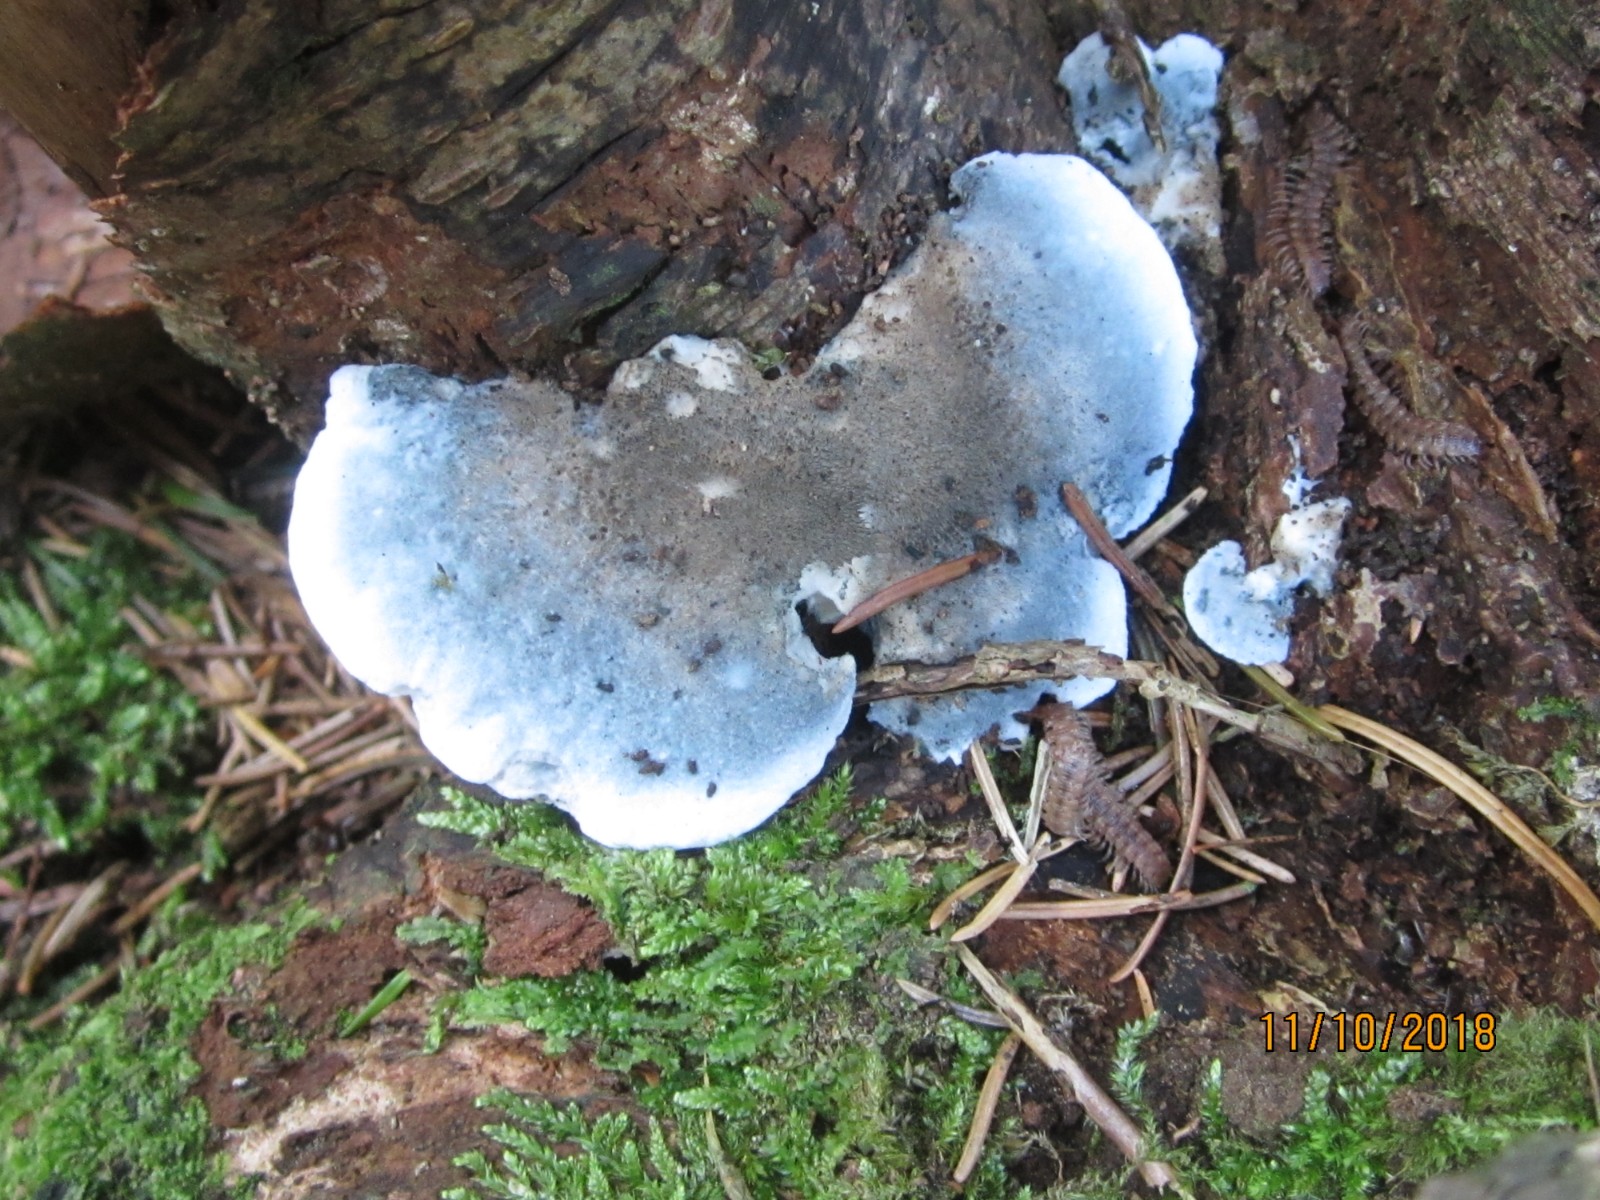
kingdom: Fungi
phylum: Basidiomycota
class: Agaricomycetes
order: Polyporales
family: Polyporaceae
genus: Cyanosporus
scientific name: Cyanosporus caesius
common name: blålig kødporesvamp
